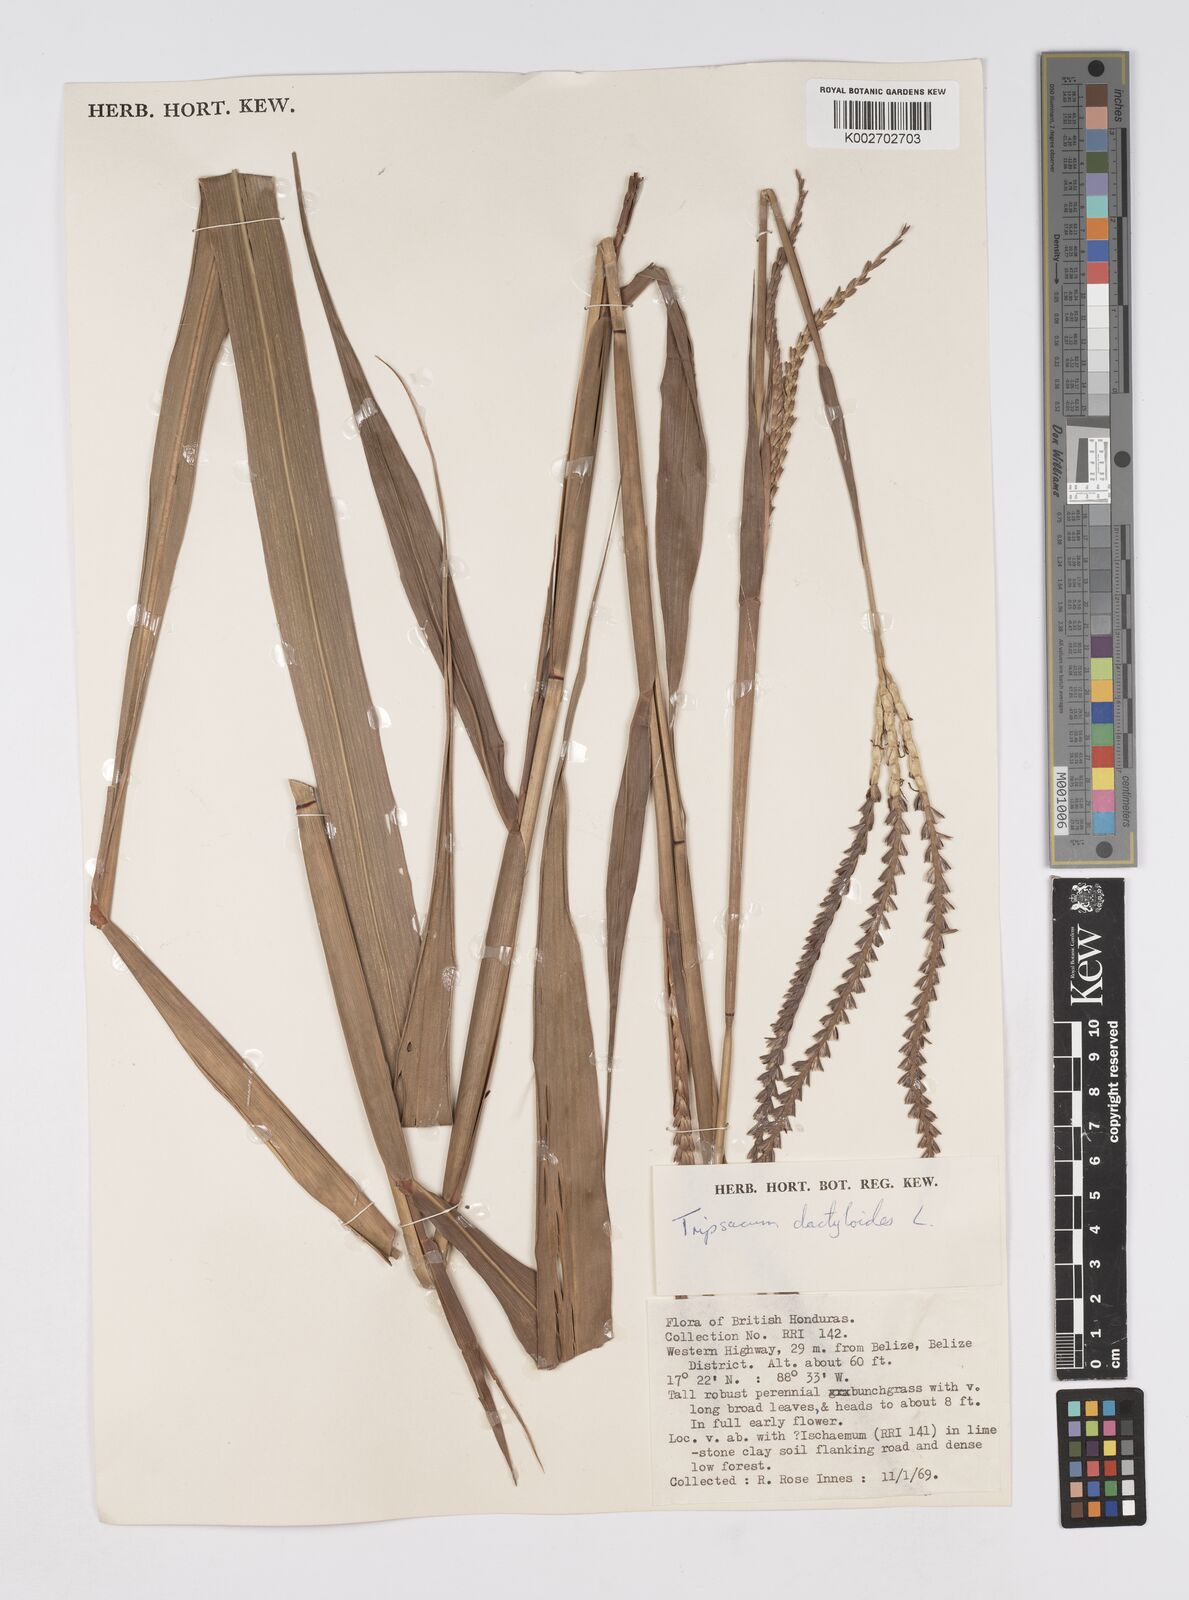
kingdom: Plantae
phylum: Tracheophyta
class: Liliopsida
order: Poales
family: Poaceae
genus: Tripsacum
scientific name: Tripsacum latifolium
